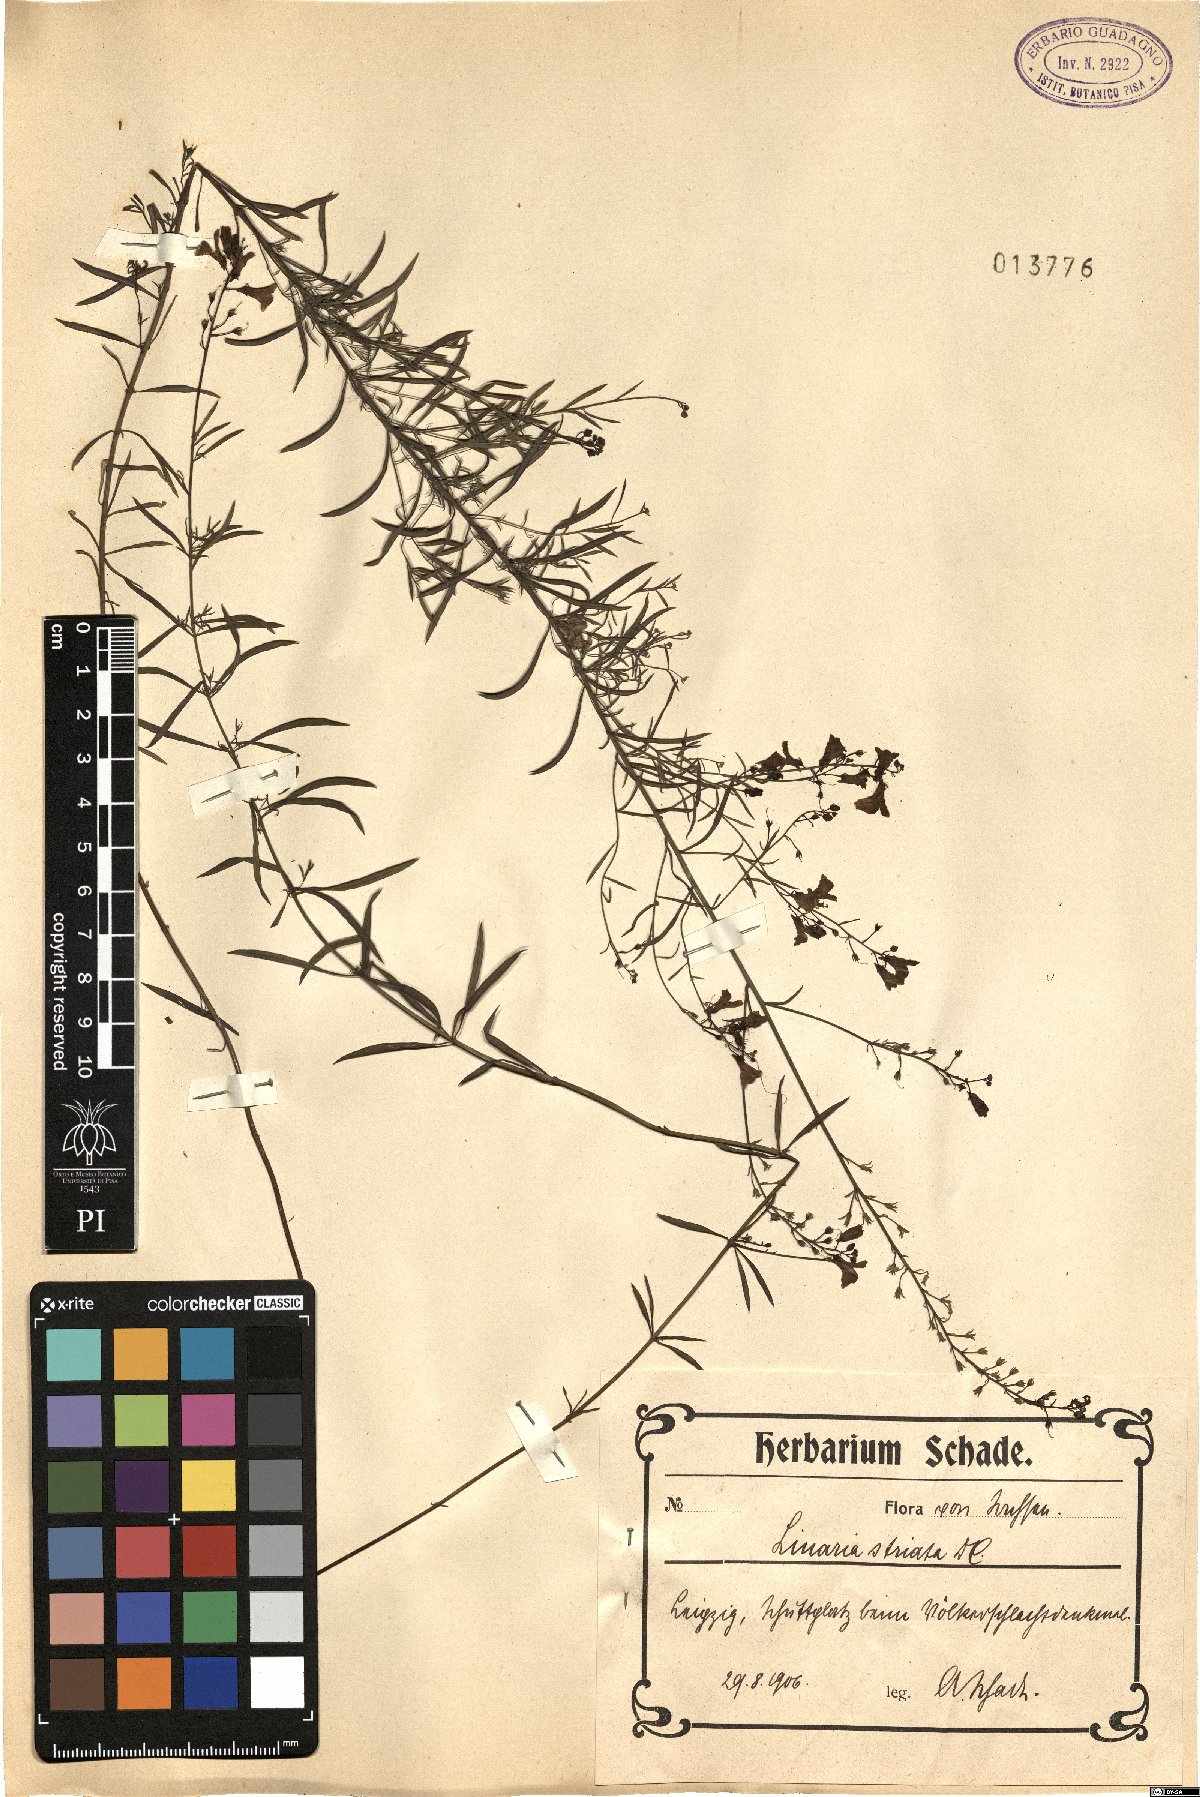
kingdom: Plantae
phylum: Tracheophyta
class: Magnoliopsida
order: Lamiales
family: Plantaginaceae
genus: Linaria
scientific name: Linaria repens
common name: Pale toadflax
